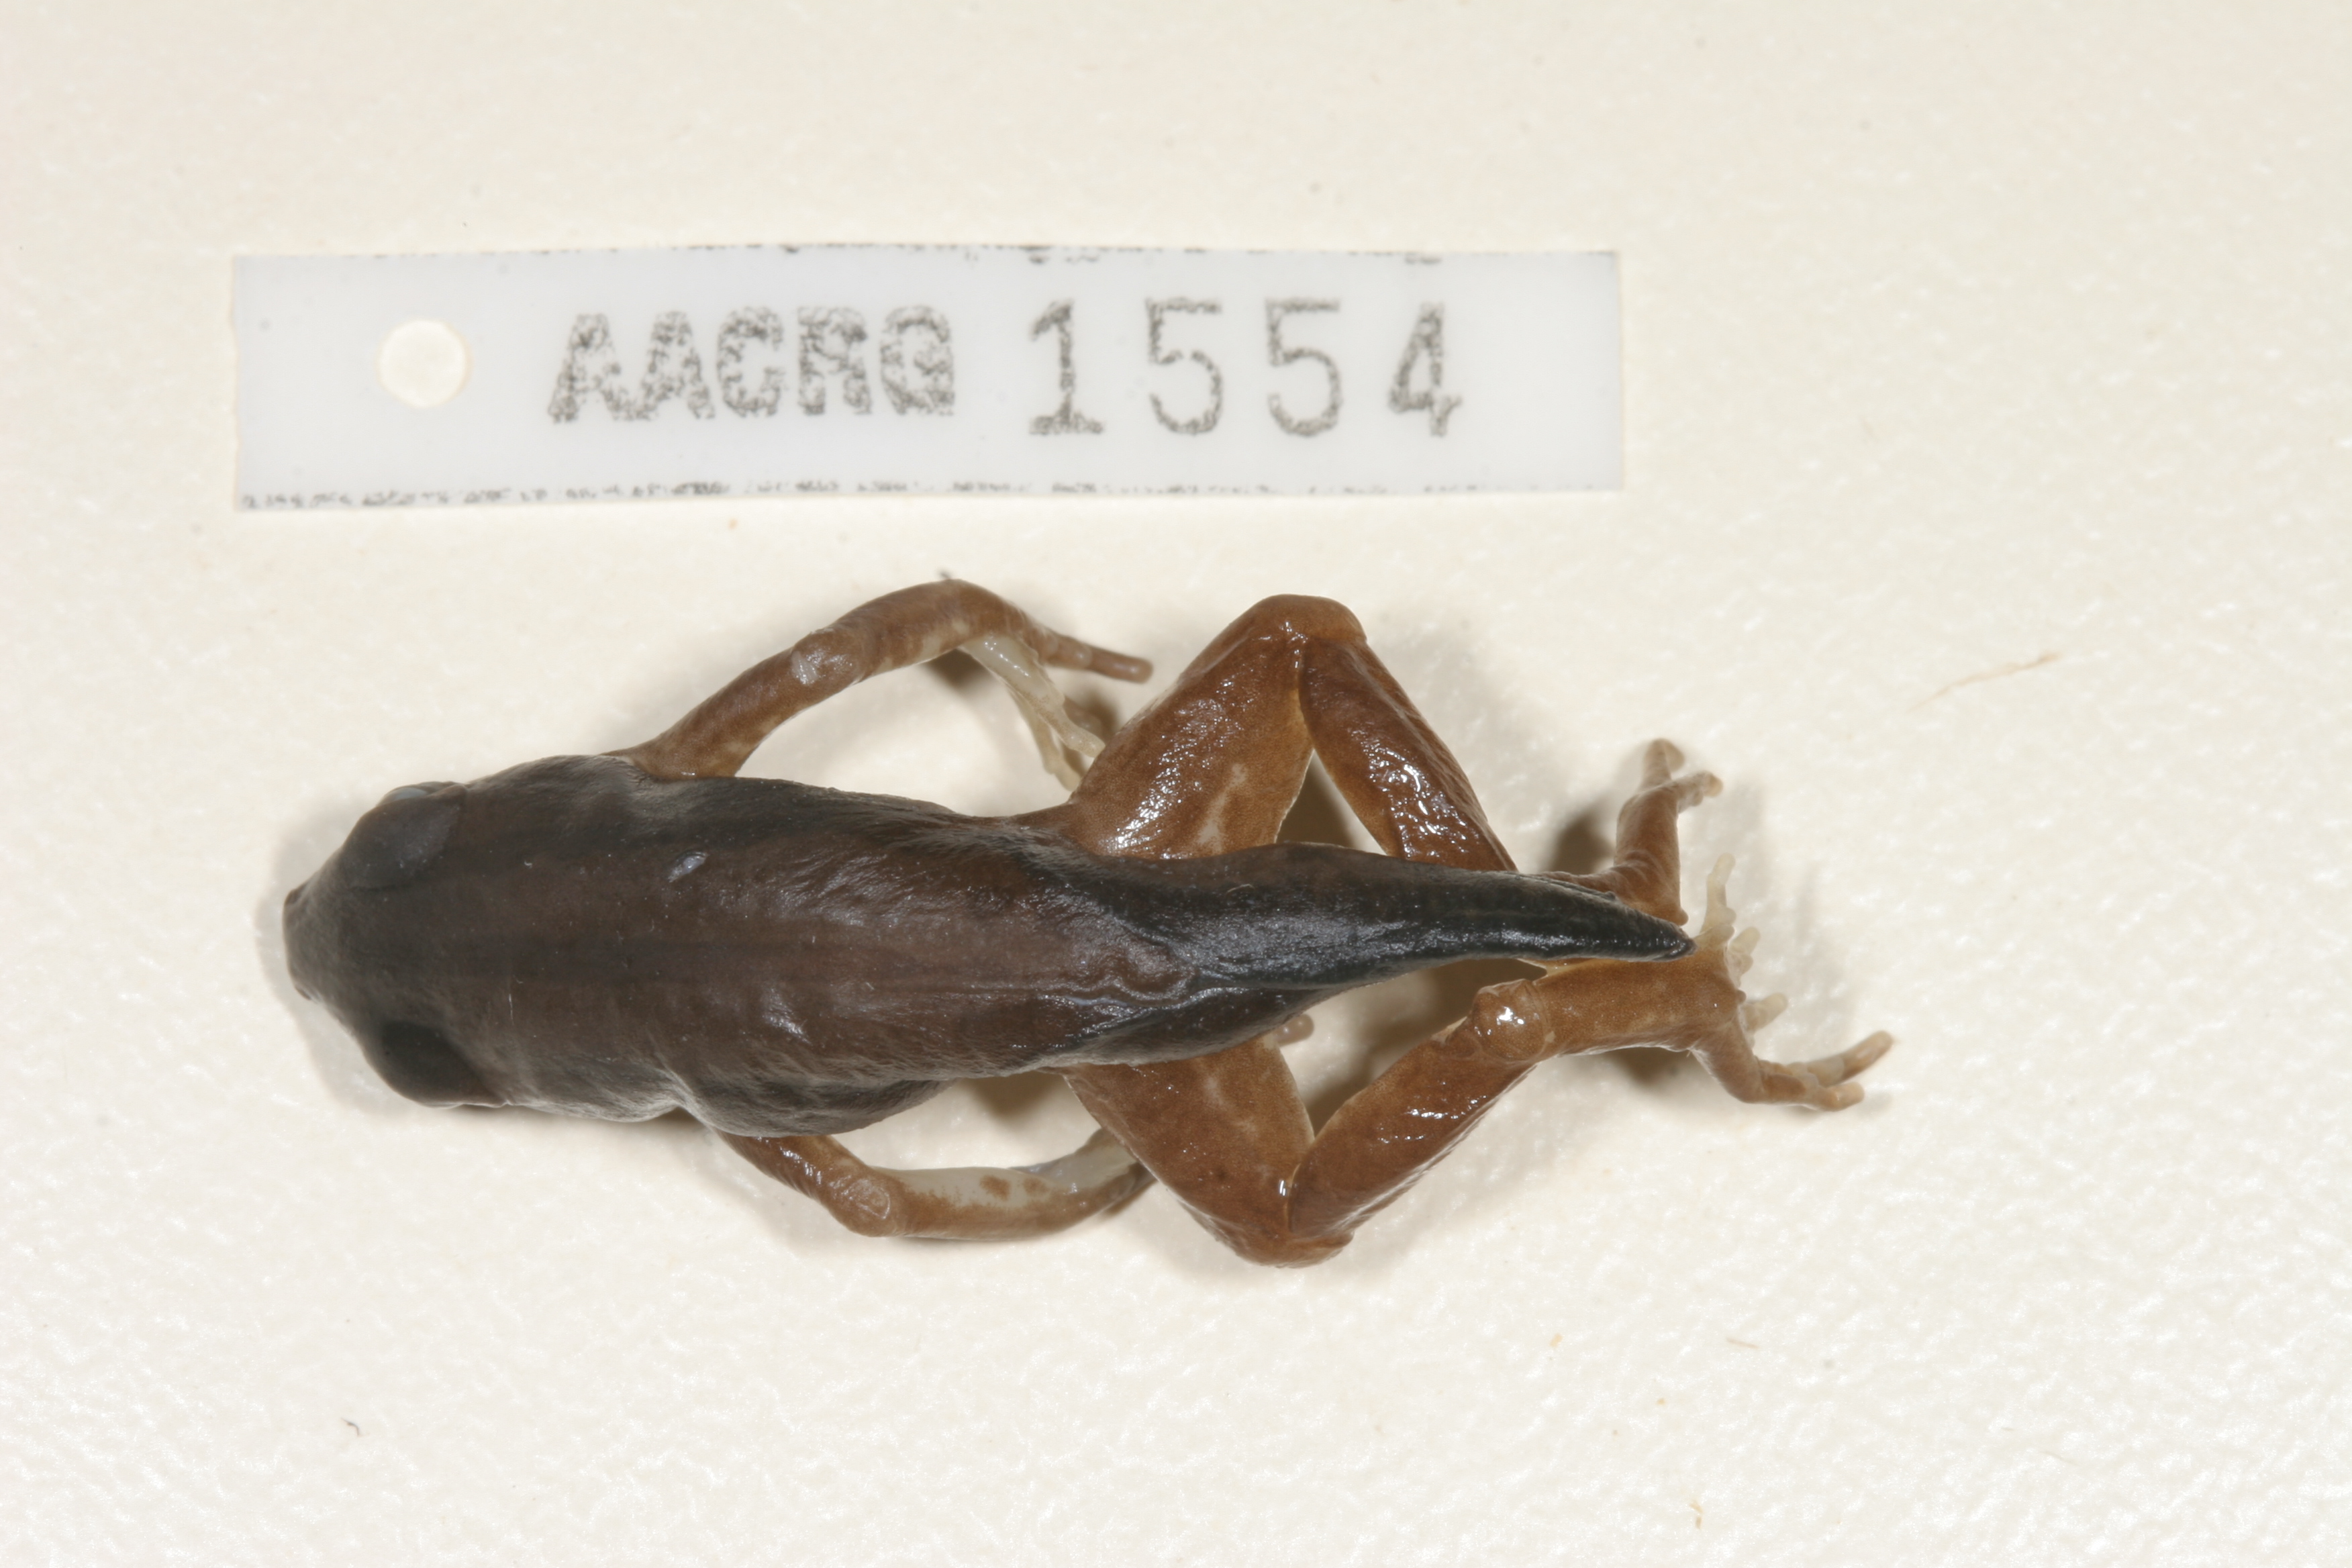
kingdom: Animalia
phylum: Chordata
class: Amphibia
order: Anura
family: Hyperoliidae
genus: Kassina
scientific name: Kassina senegalensis
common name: Senegal land frog
